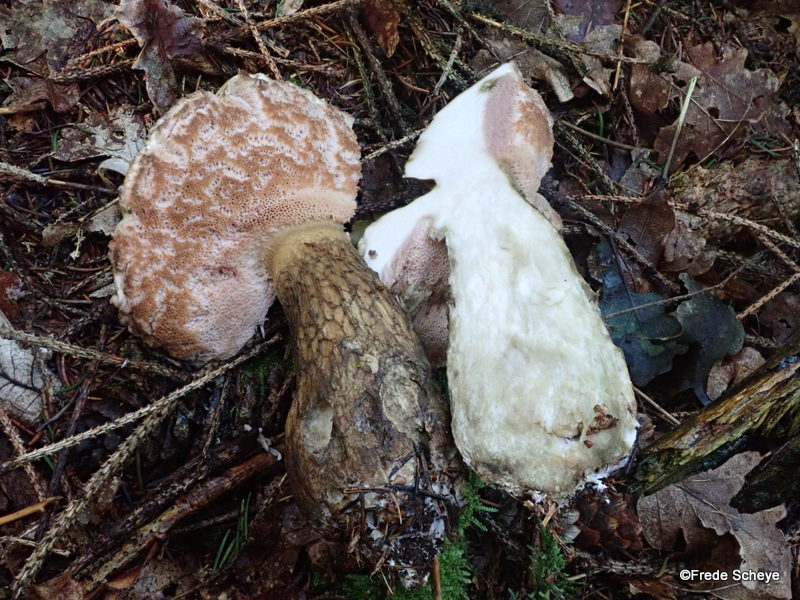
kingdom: Fungi
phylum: Basidiomycota
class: Agaricomycetes
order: Boletales
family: Boletaceae
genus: Tylopilus
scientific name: Tylopilus felleus
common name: galderørhat
